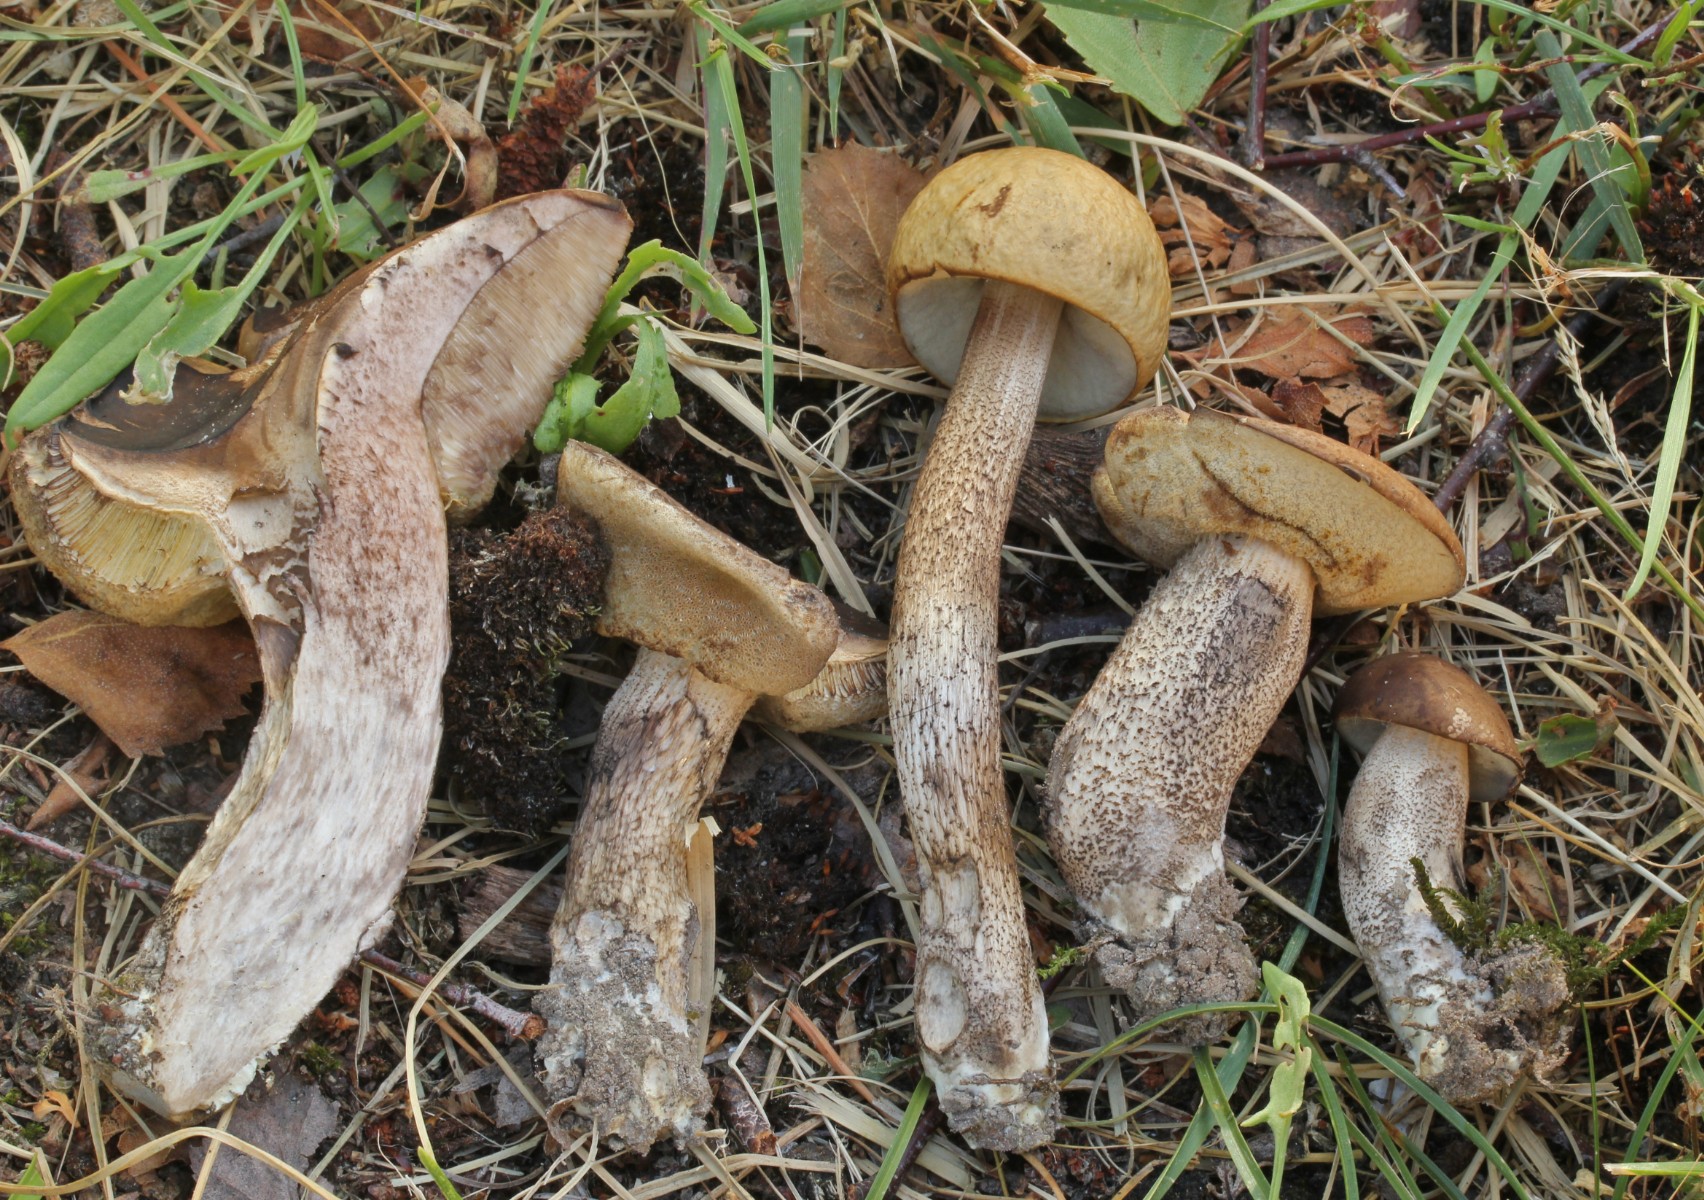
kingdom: Fungi
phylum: Basidiomycota
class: Agaricomycetes
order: Boletales
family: Boletaceae
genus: Leccinellum
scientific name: Leccinellum pseudoscabrum
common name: avnbøg-skælrørhat
